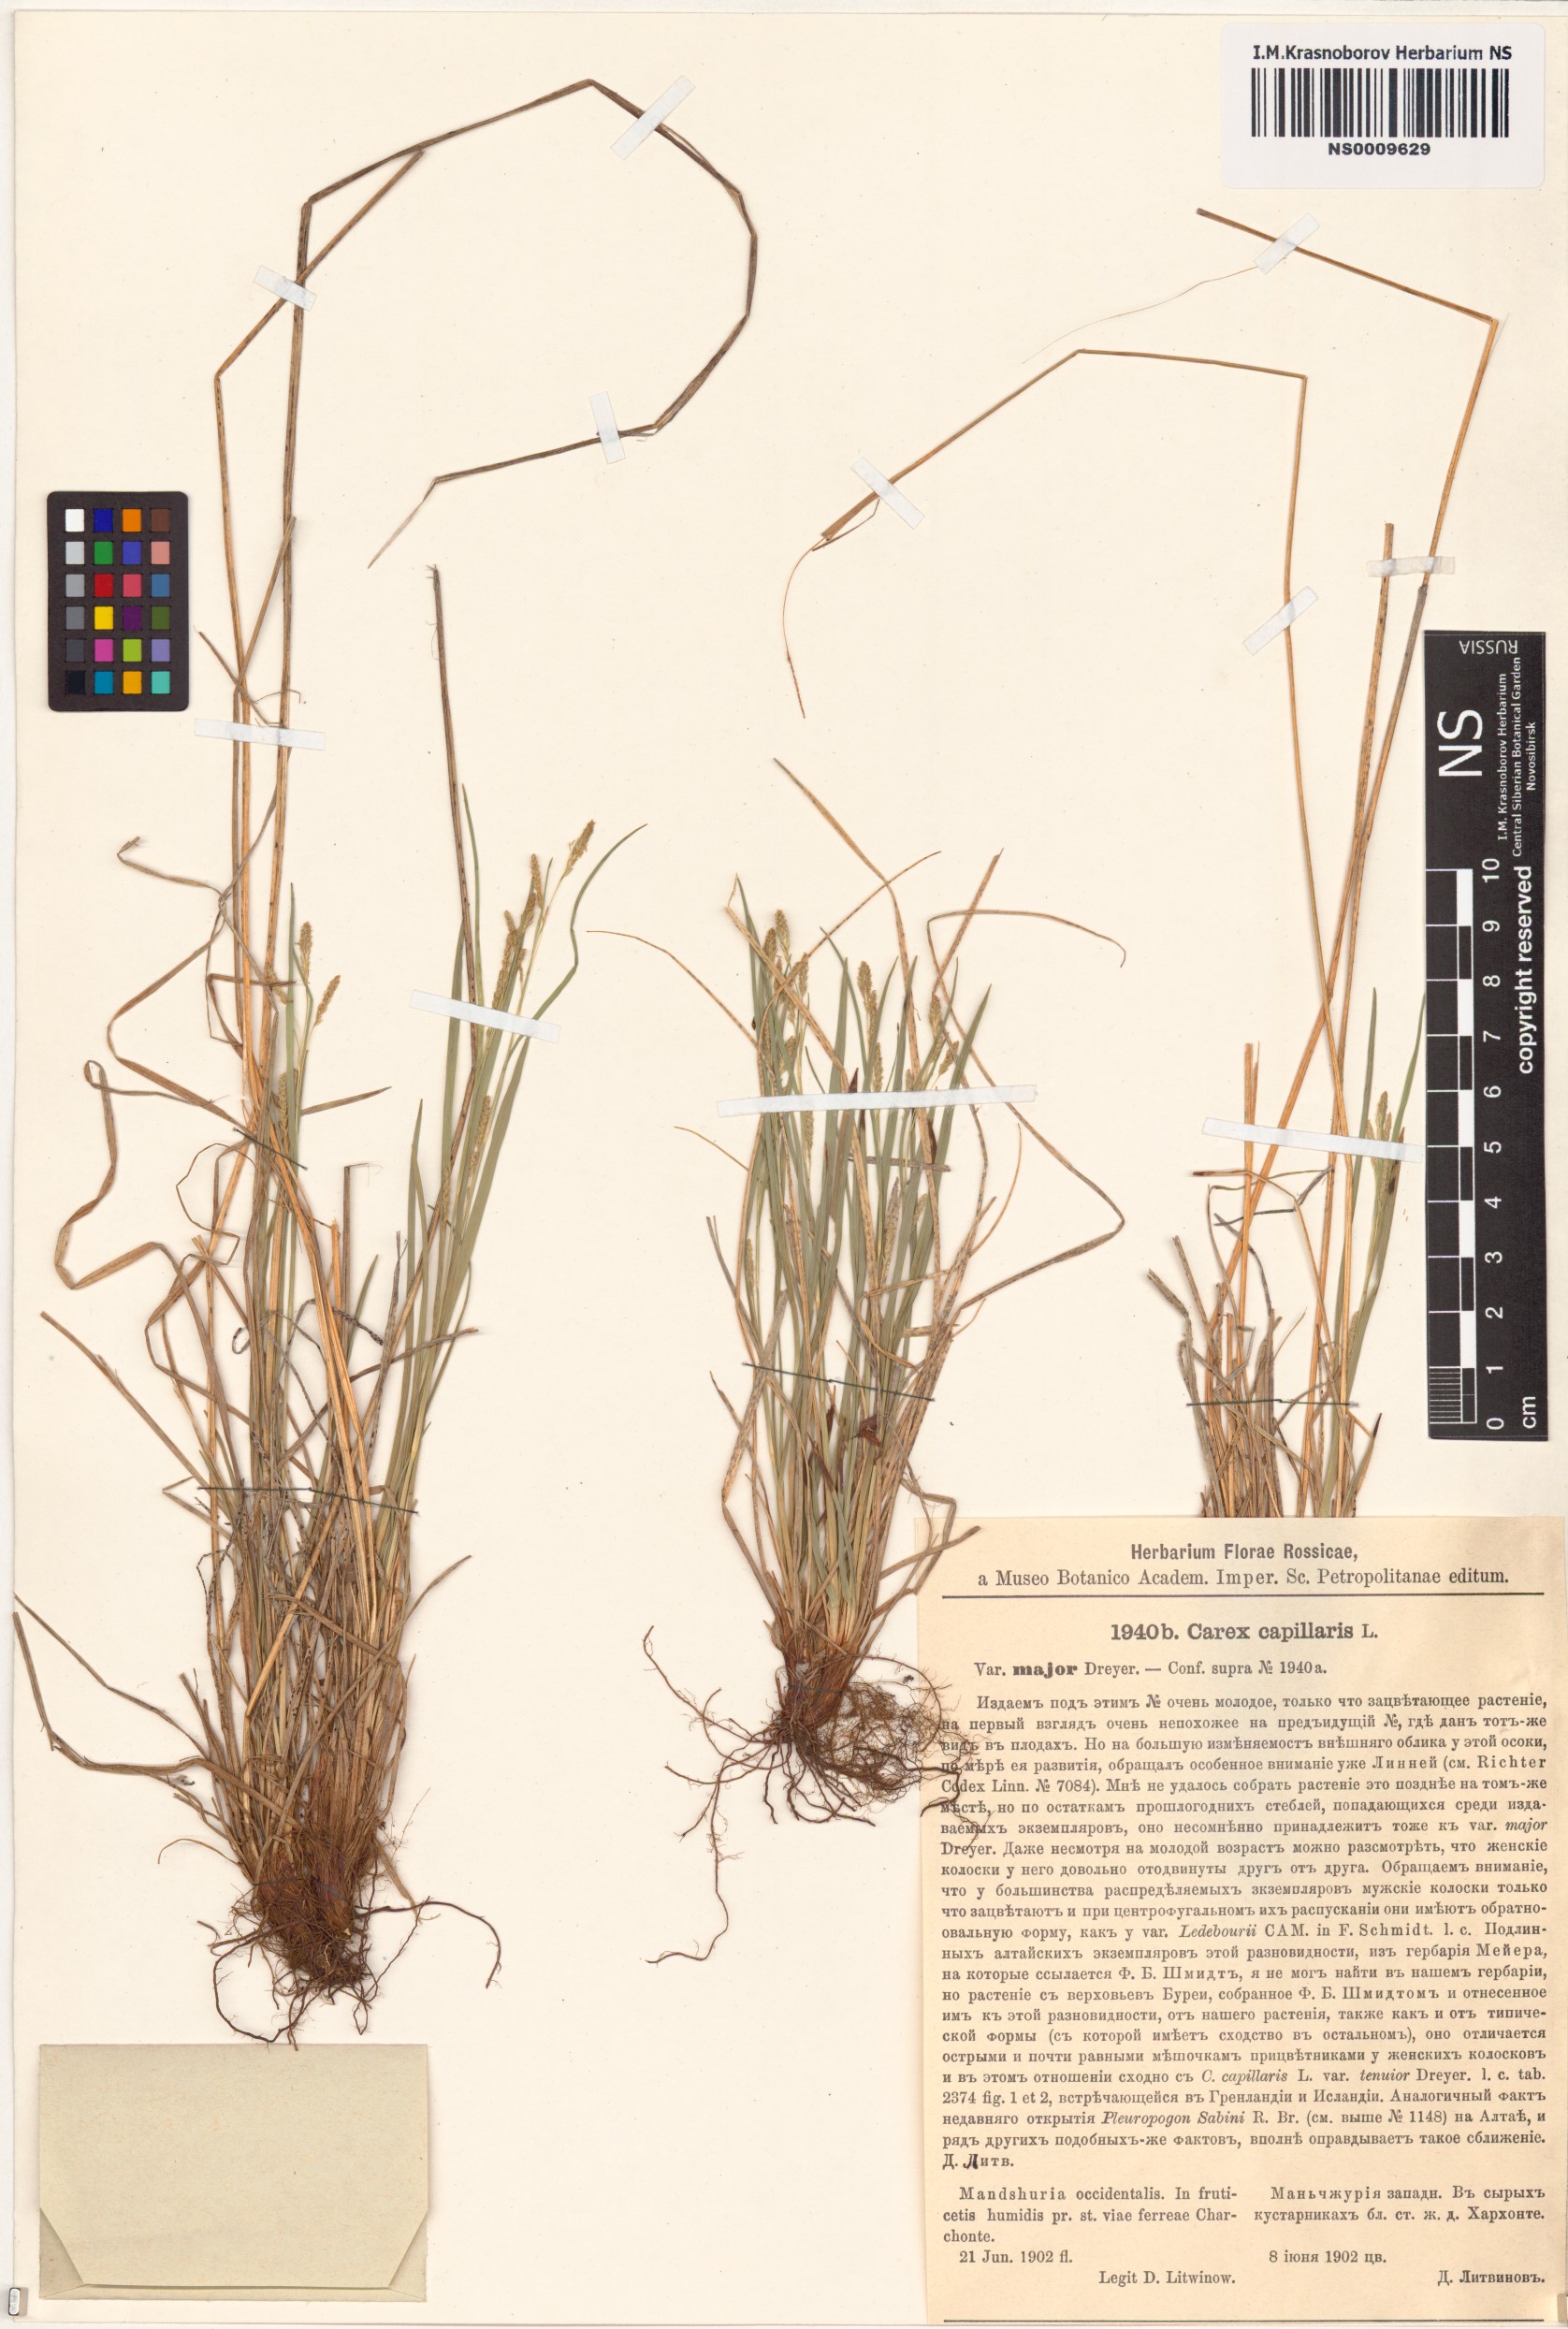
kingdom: Plantae
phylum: Tracheophyta
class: Liliopsida
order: Poales
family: Cyperaceae
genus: Carex
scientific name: Carex capillaris
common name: Hair sedge
